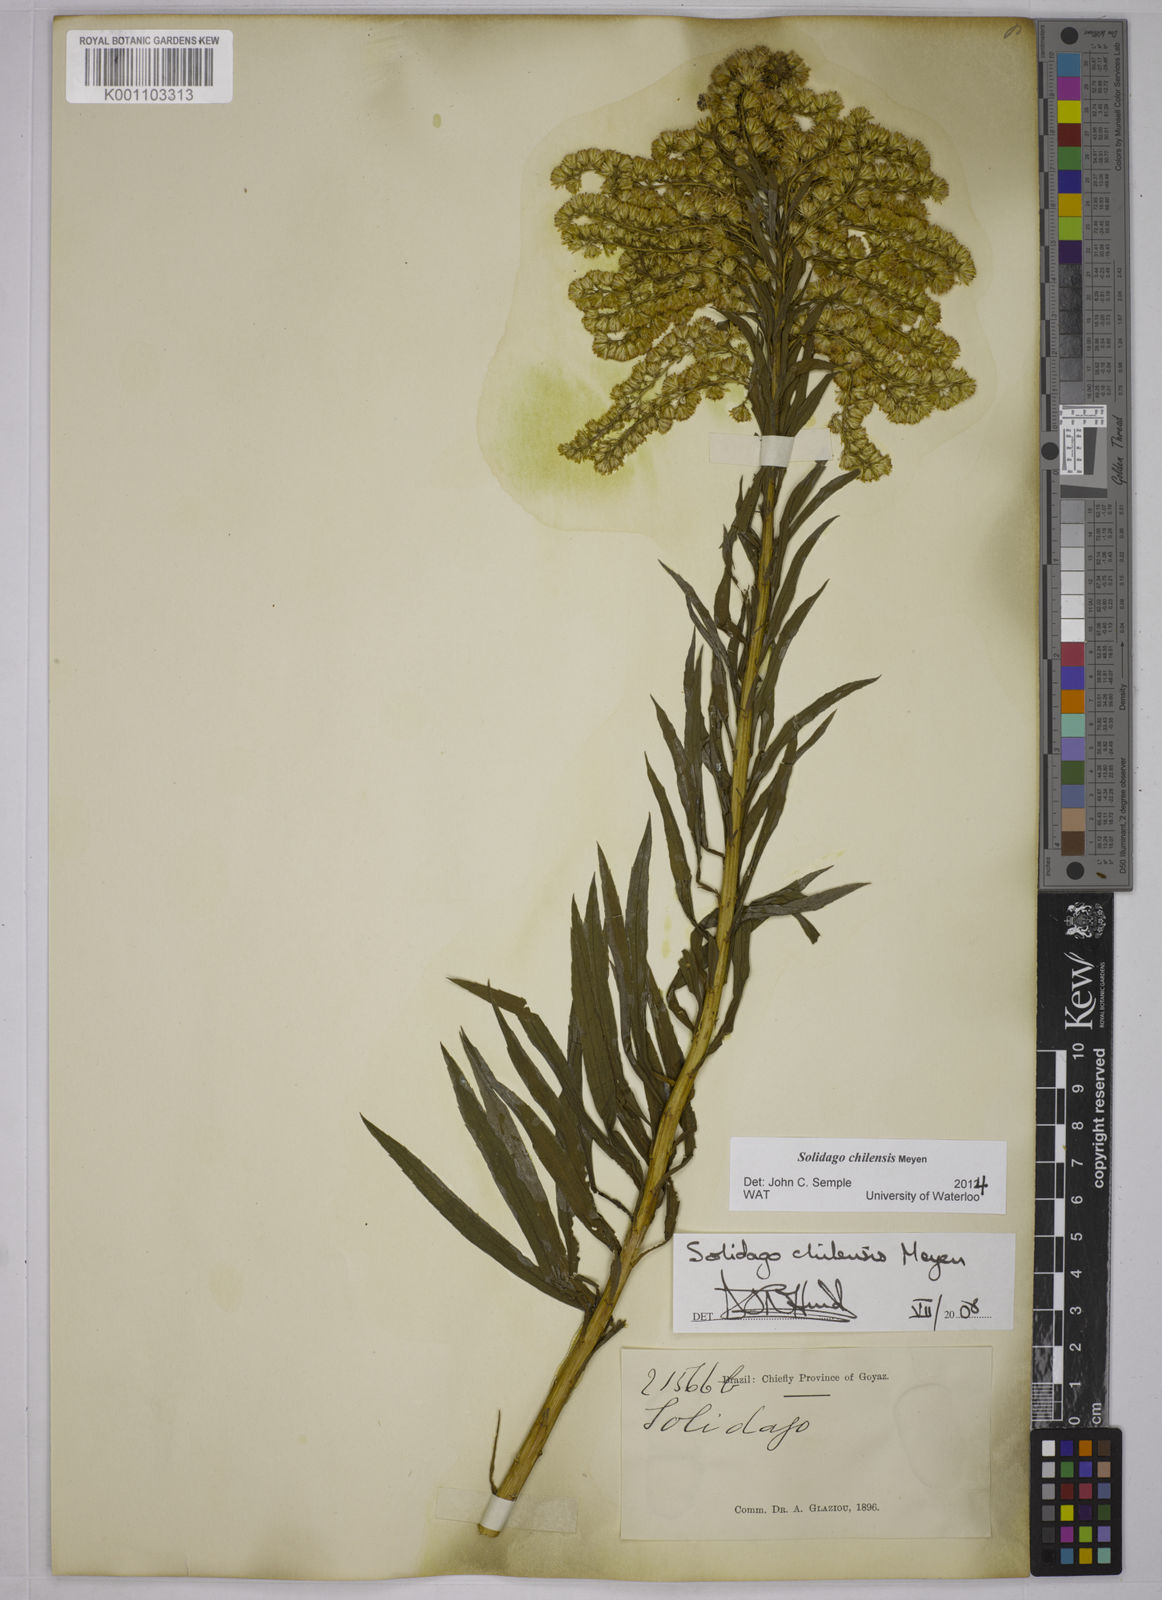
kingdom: Plantae
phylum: Tracheophyta
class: Magnoliopsida
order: Asterales
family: Asteraceae
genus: Solidago
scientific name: Solidago chilensis
